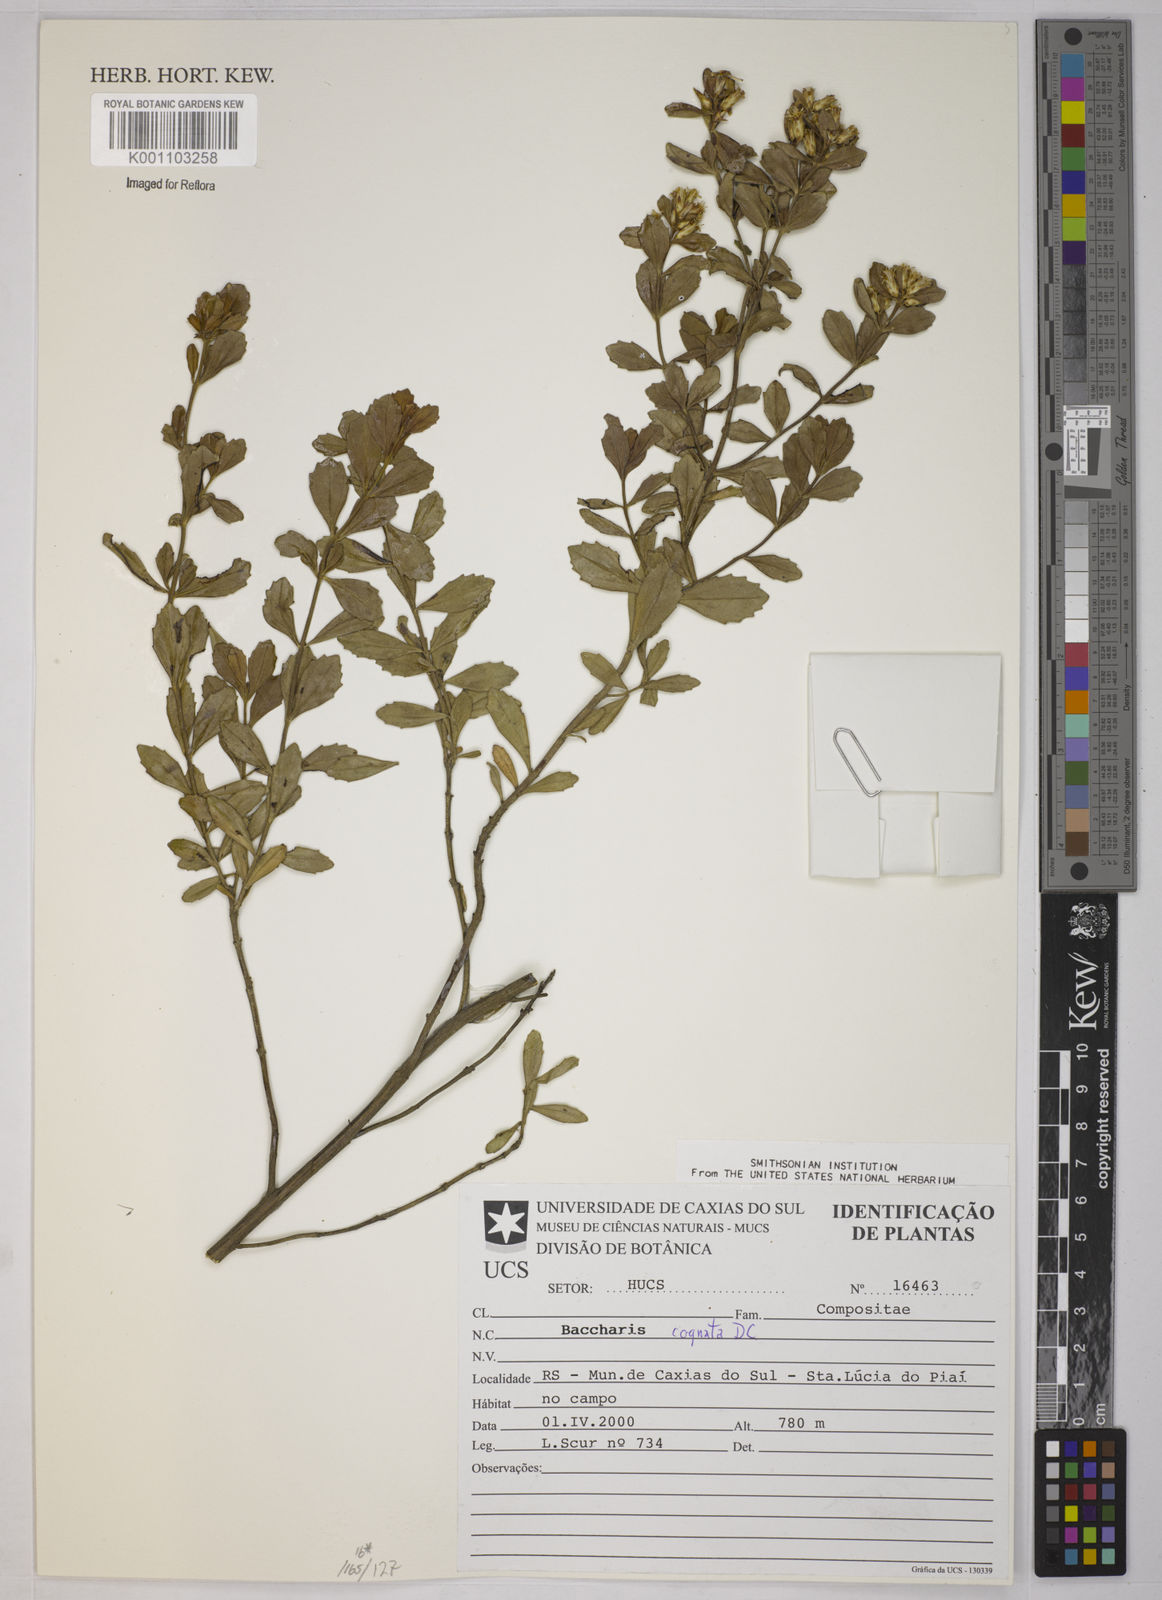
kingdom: Plantae
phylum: Tracheophyta
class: Magnoliopsida
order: Asterales
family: Asteraceae
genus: Baccharis
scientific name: Baccharis cognata
